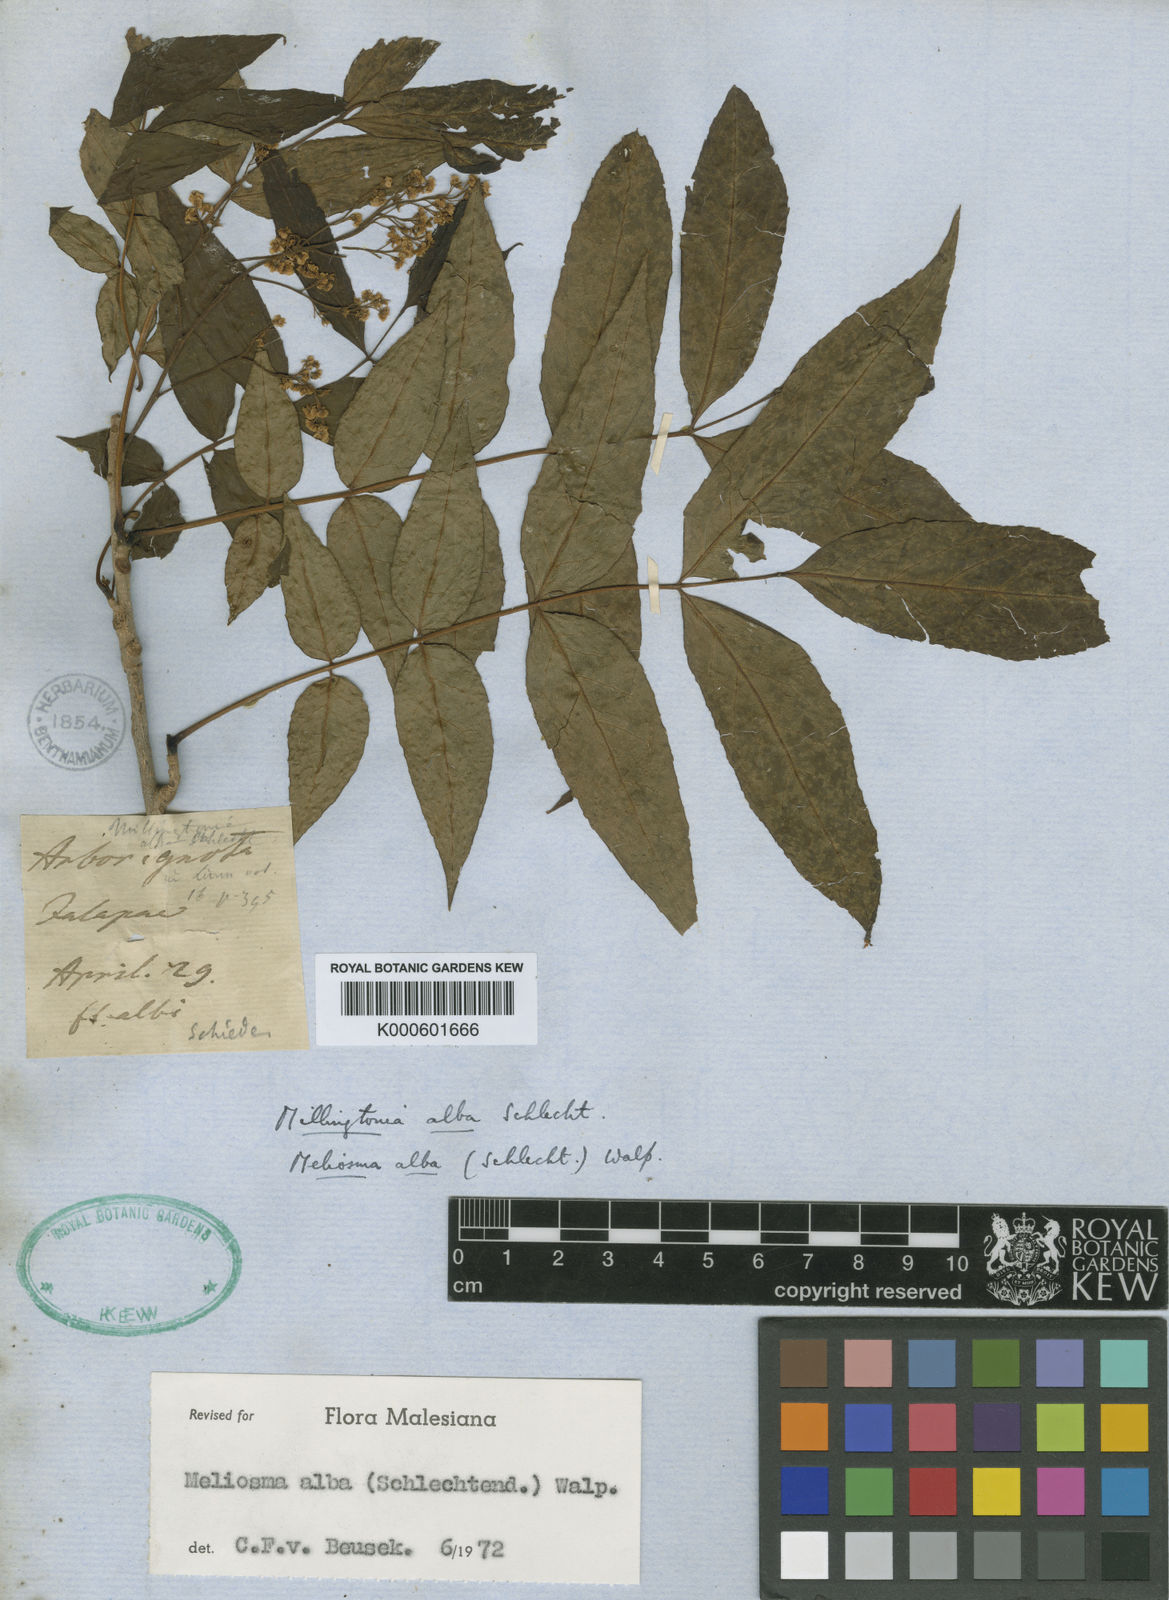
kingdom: Plantae
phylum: Tracheophyta
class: Magnoliopsida
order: Proteales
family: Sabiaceae
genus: Meliosma
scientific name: Meliosma alba
